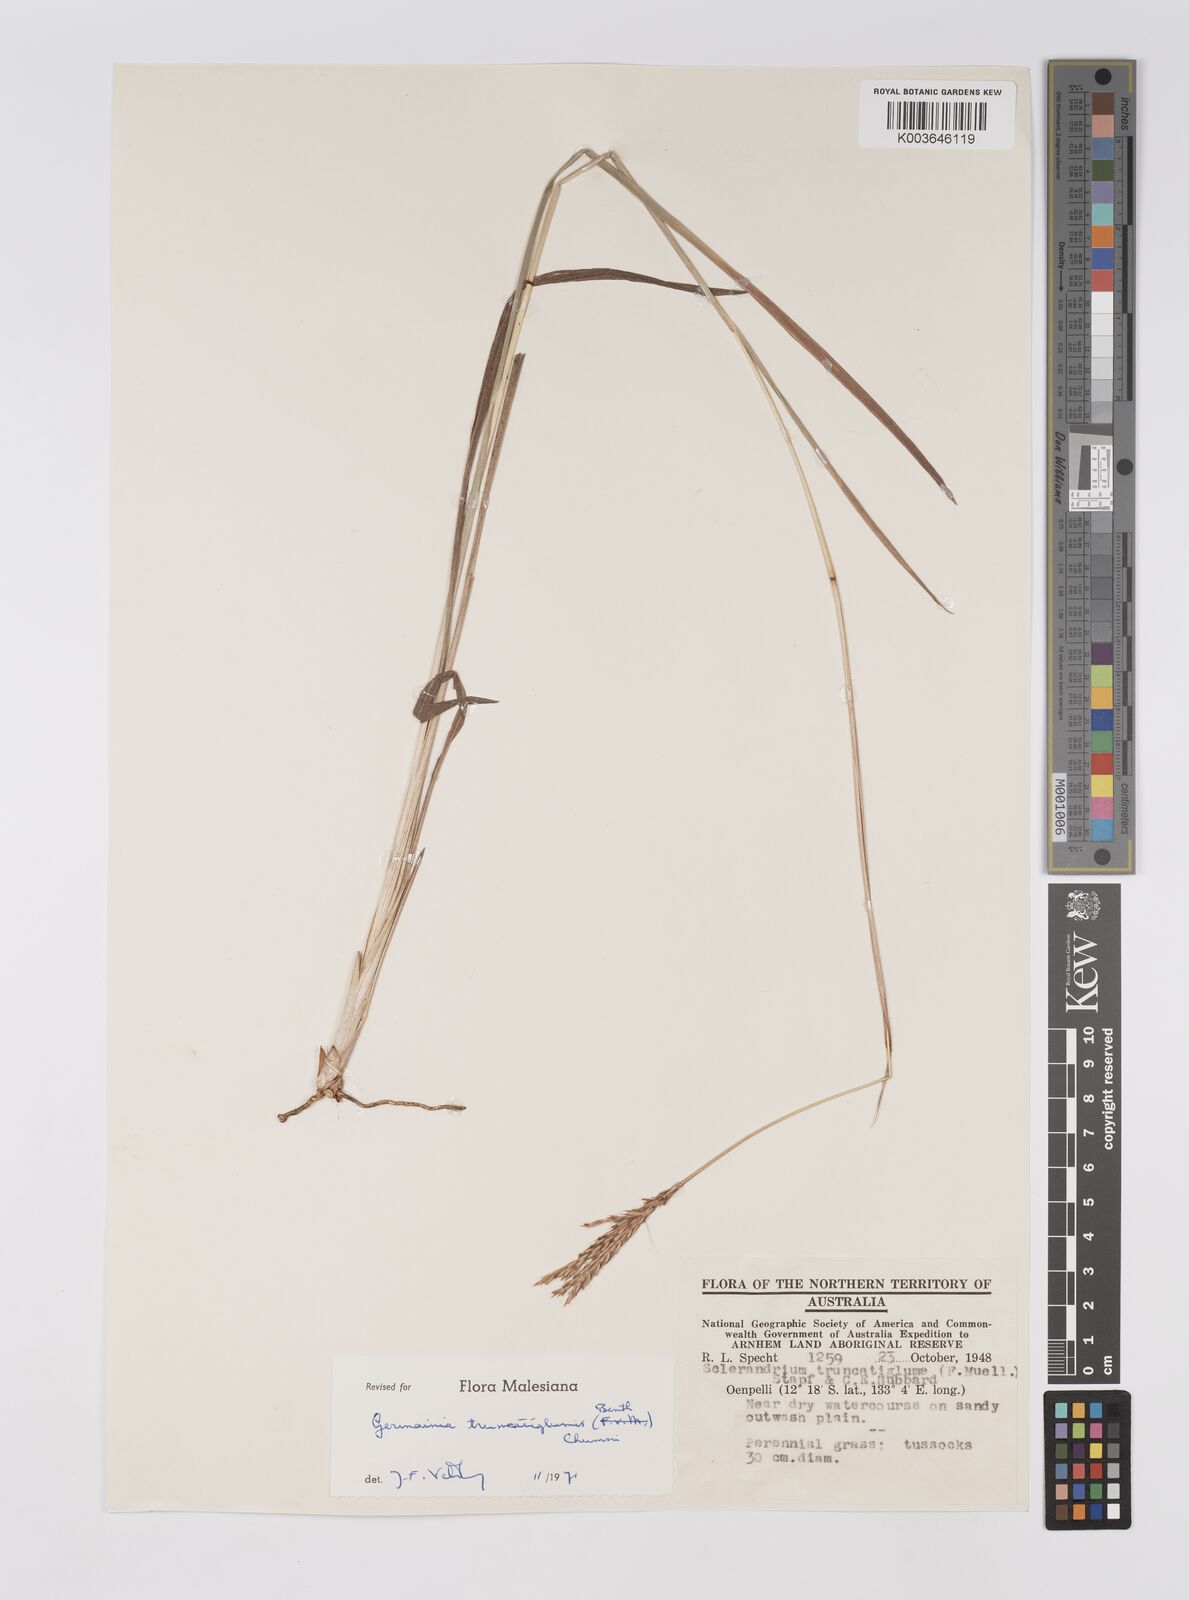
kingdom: Plantae
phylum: Tracheophyta
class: Liliopsida
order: Poales
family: Poaceae
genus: Germainia
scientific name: Germainia truncatiglumis
